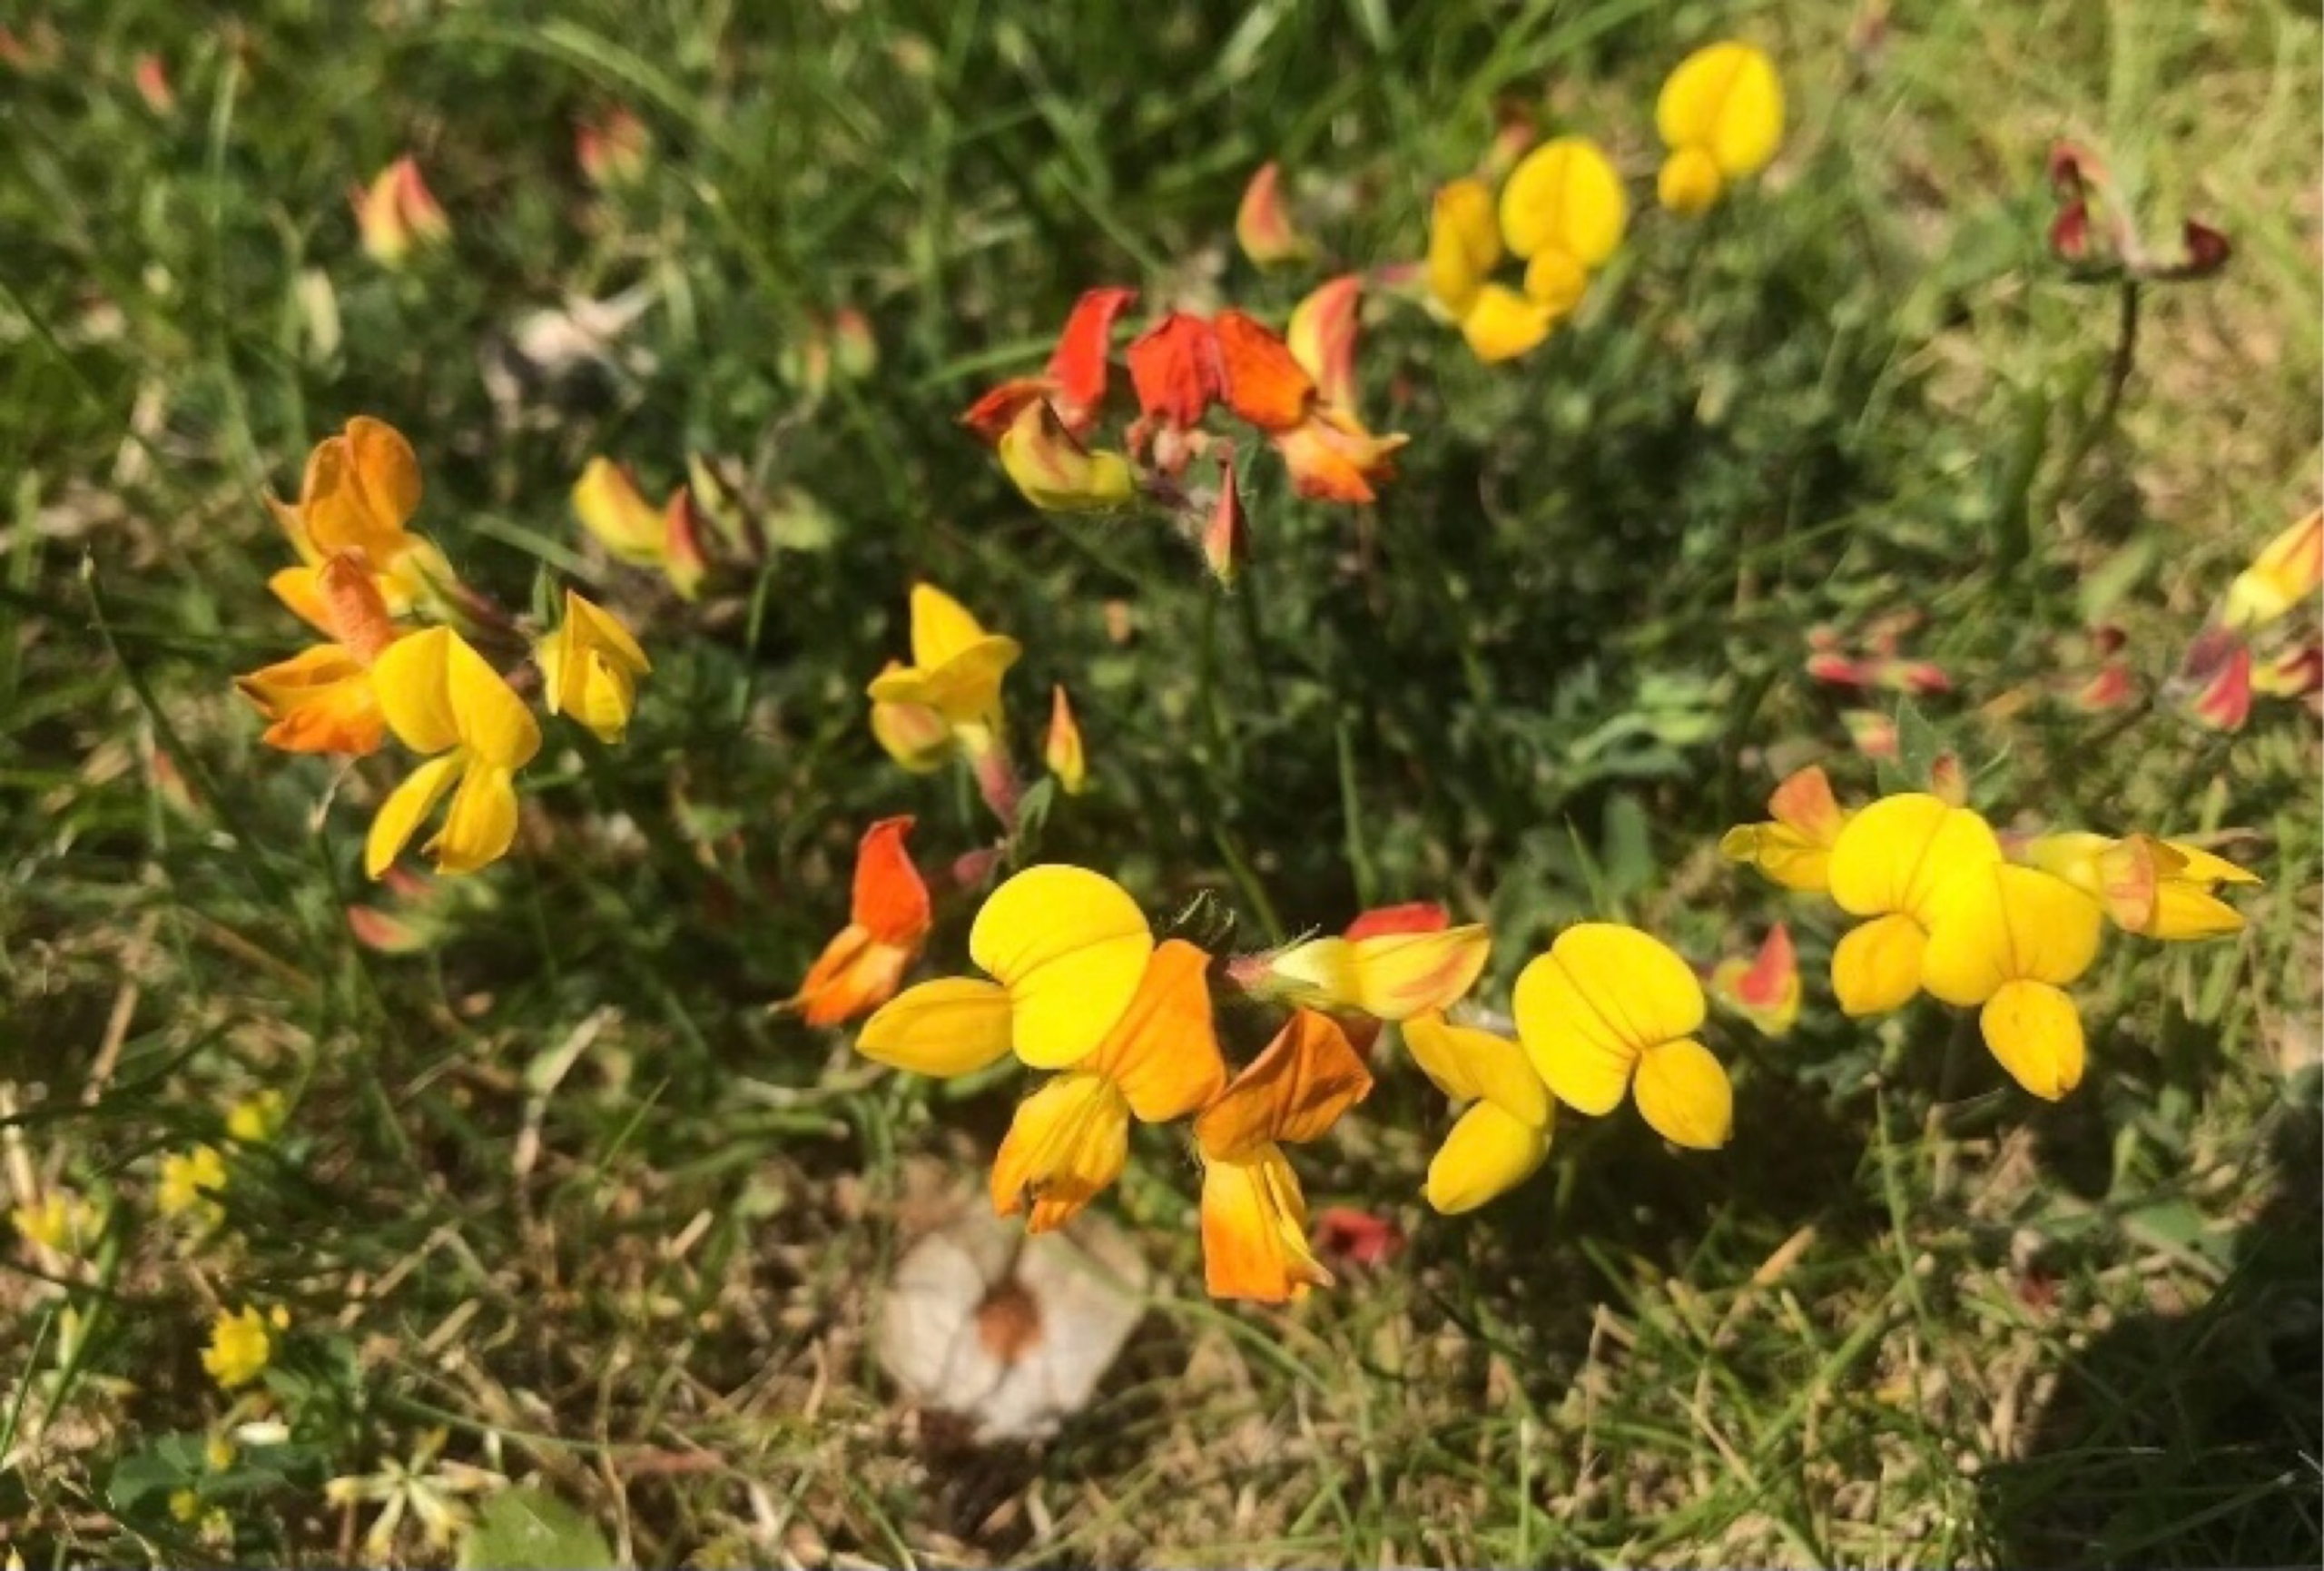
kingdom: Plantae
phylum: Tracheophyta
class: Magnoliopsida
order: Fabales
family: Fabaceae
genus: Lotus
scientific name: Lotus corniculatus
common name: Almindelig kællingetand
